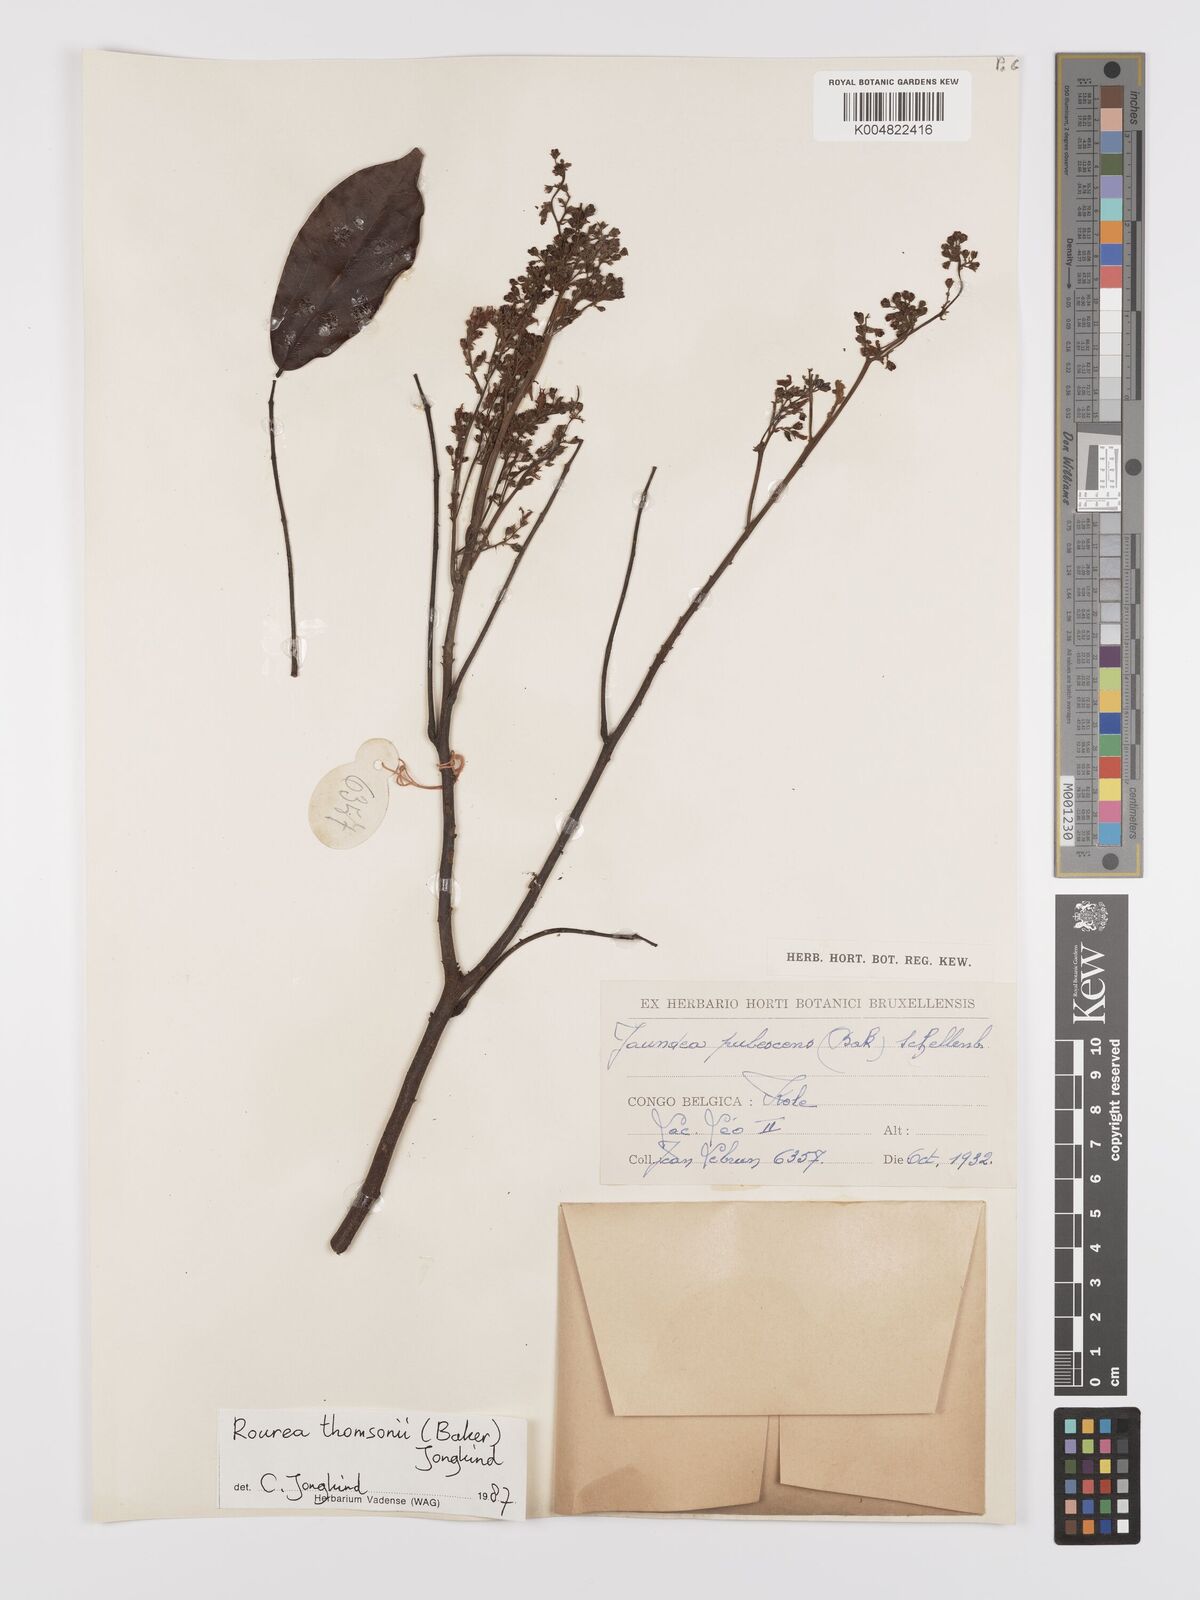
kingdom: Plantae
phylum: Tracheophyta
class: Magnoliopsida
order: Oxalidales
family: Connaraceae
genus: Rourea
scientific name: Rourea pubescens
